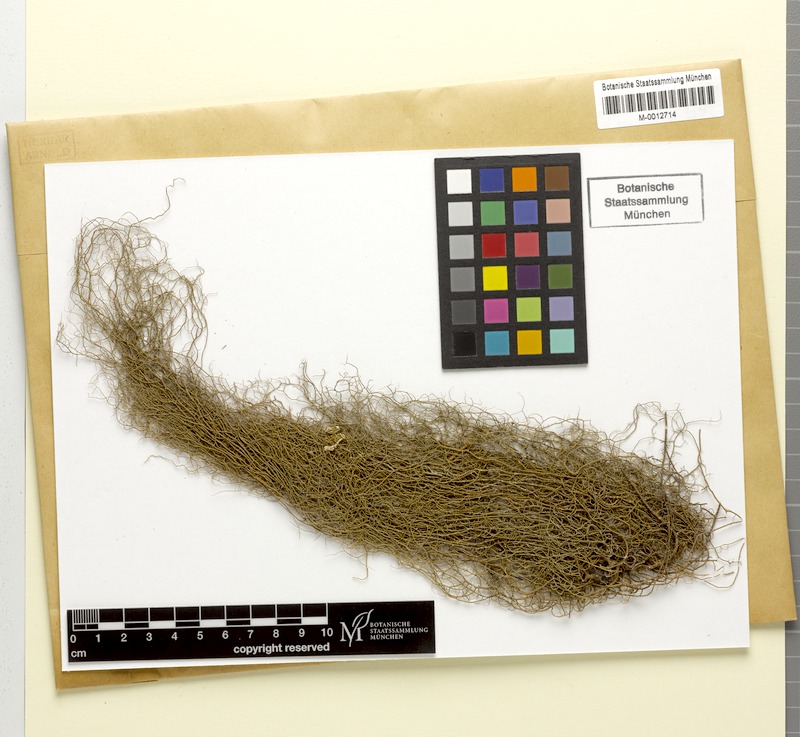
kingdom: Fungi
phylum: Ascomycota
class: Lecanoromycetes
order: Lecanorales
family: Parmeliaceae
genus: Usnea
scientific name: Usnea ceratina
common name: Warty beard lichen
